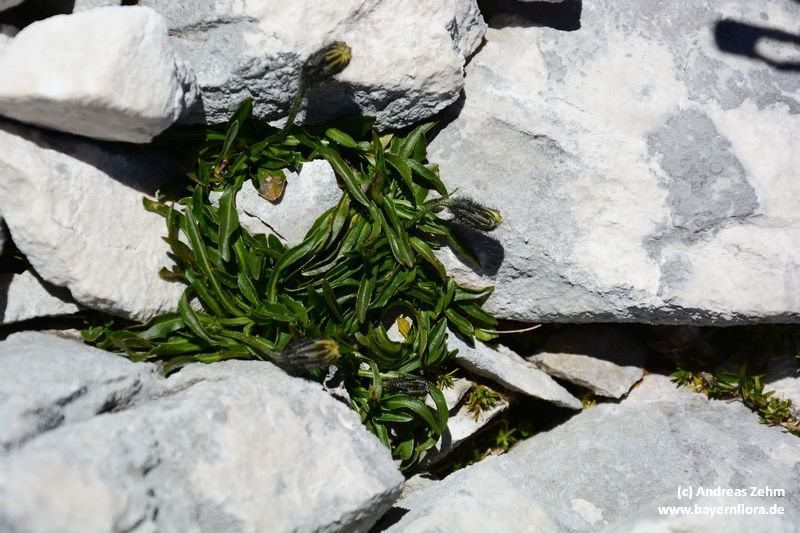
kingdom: Plantae
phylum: Tracheophyta
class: Magnoliopsida
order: Asterales
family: Asteraceae
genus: Scorzoneroides
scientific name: Scorzoneroides montana
